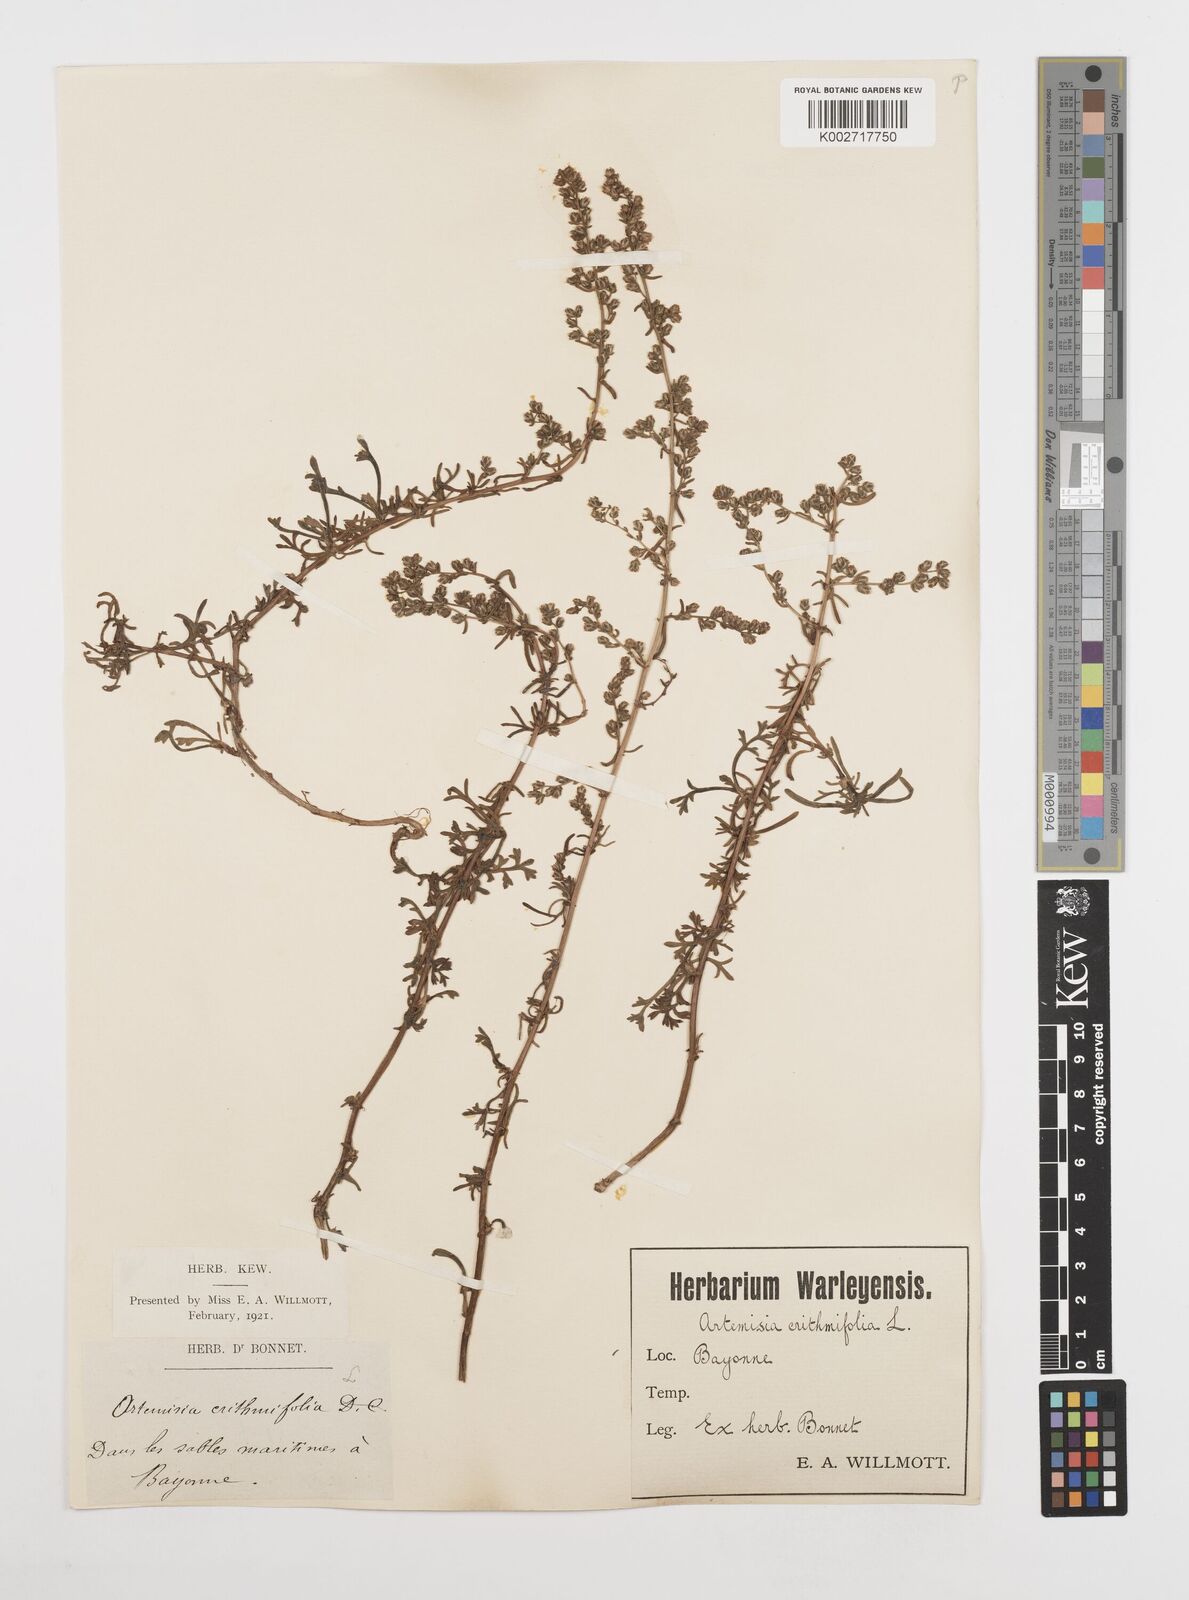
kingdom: Plantae
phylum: Tracheophyta
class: Magnoliopsida
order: Asterales
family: Asteraceae
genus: Artemisia
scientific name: Artemisia campestris
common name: Field wormwood
